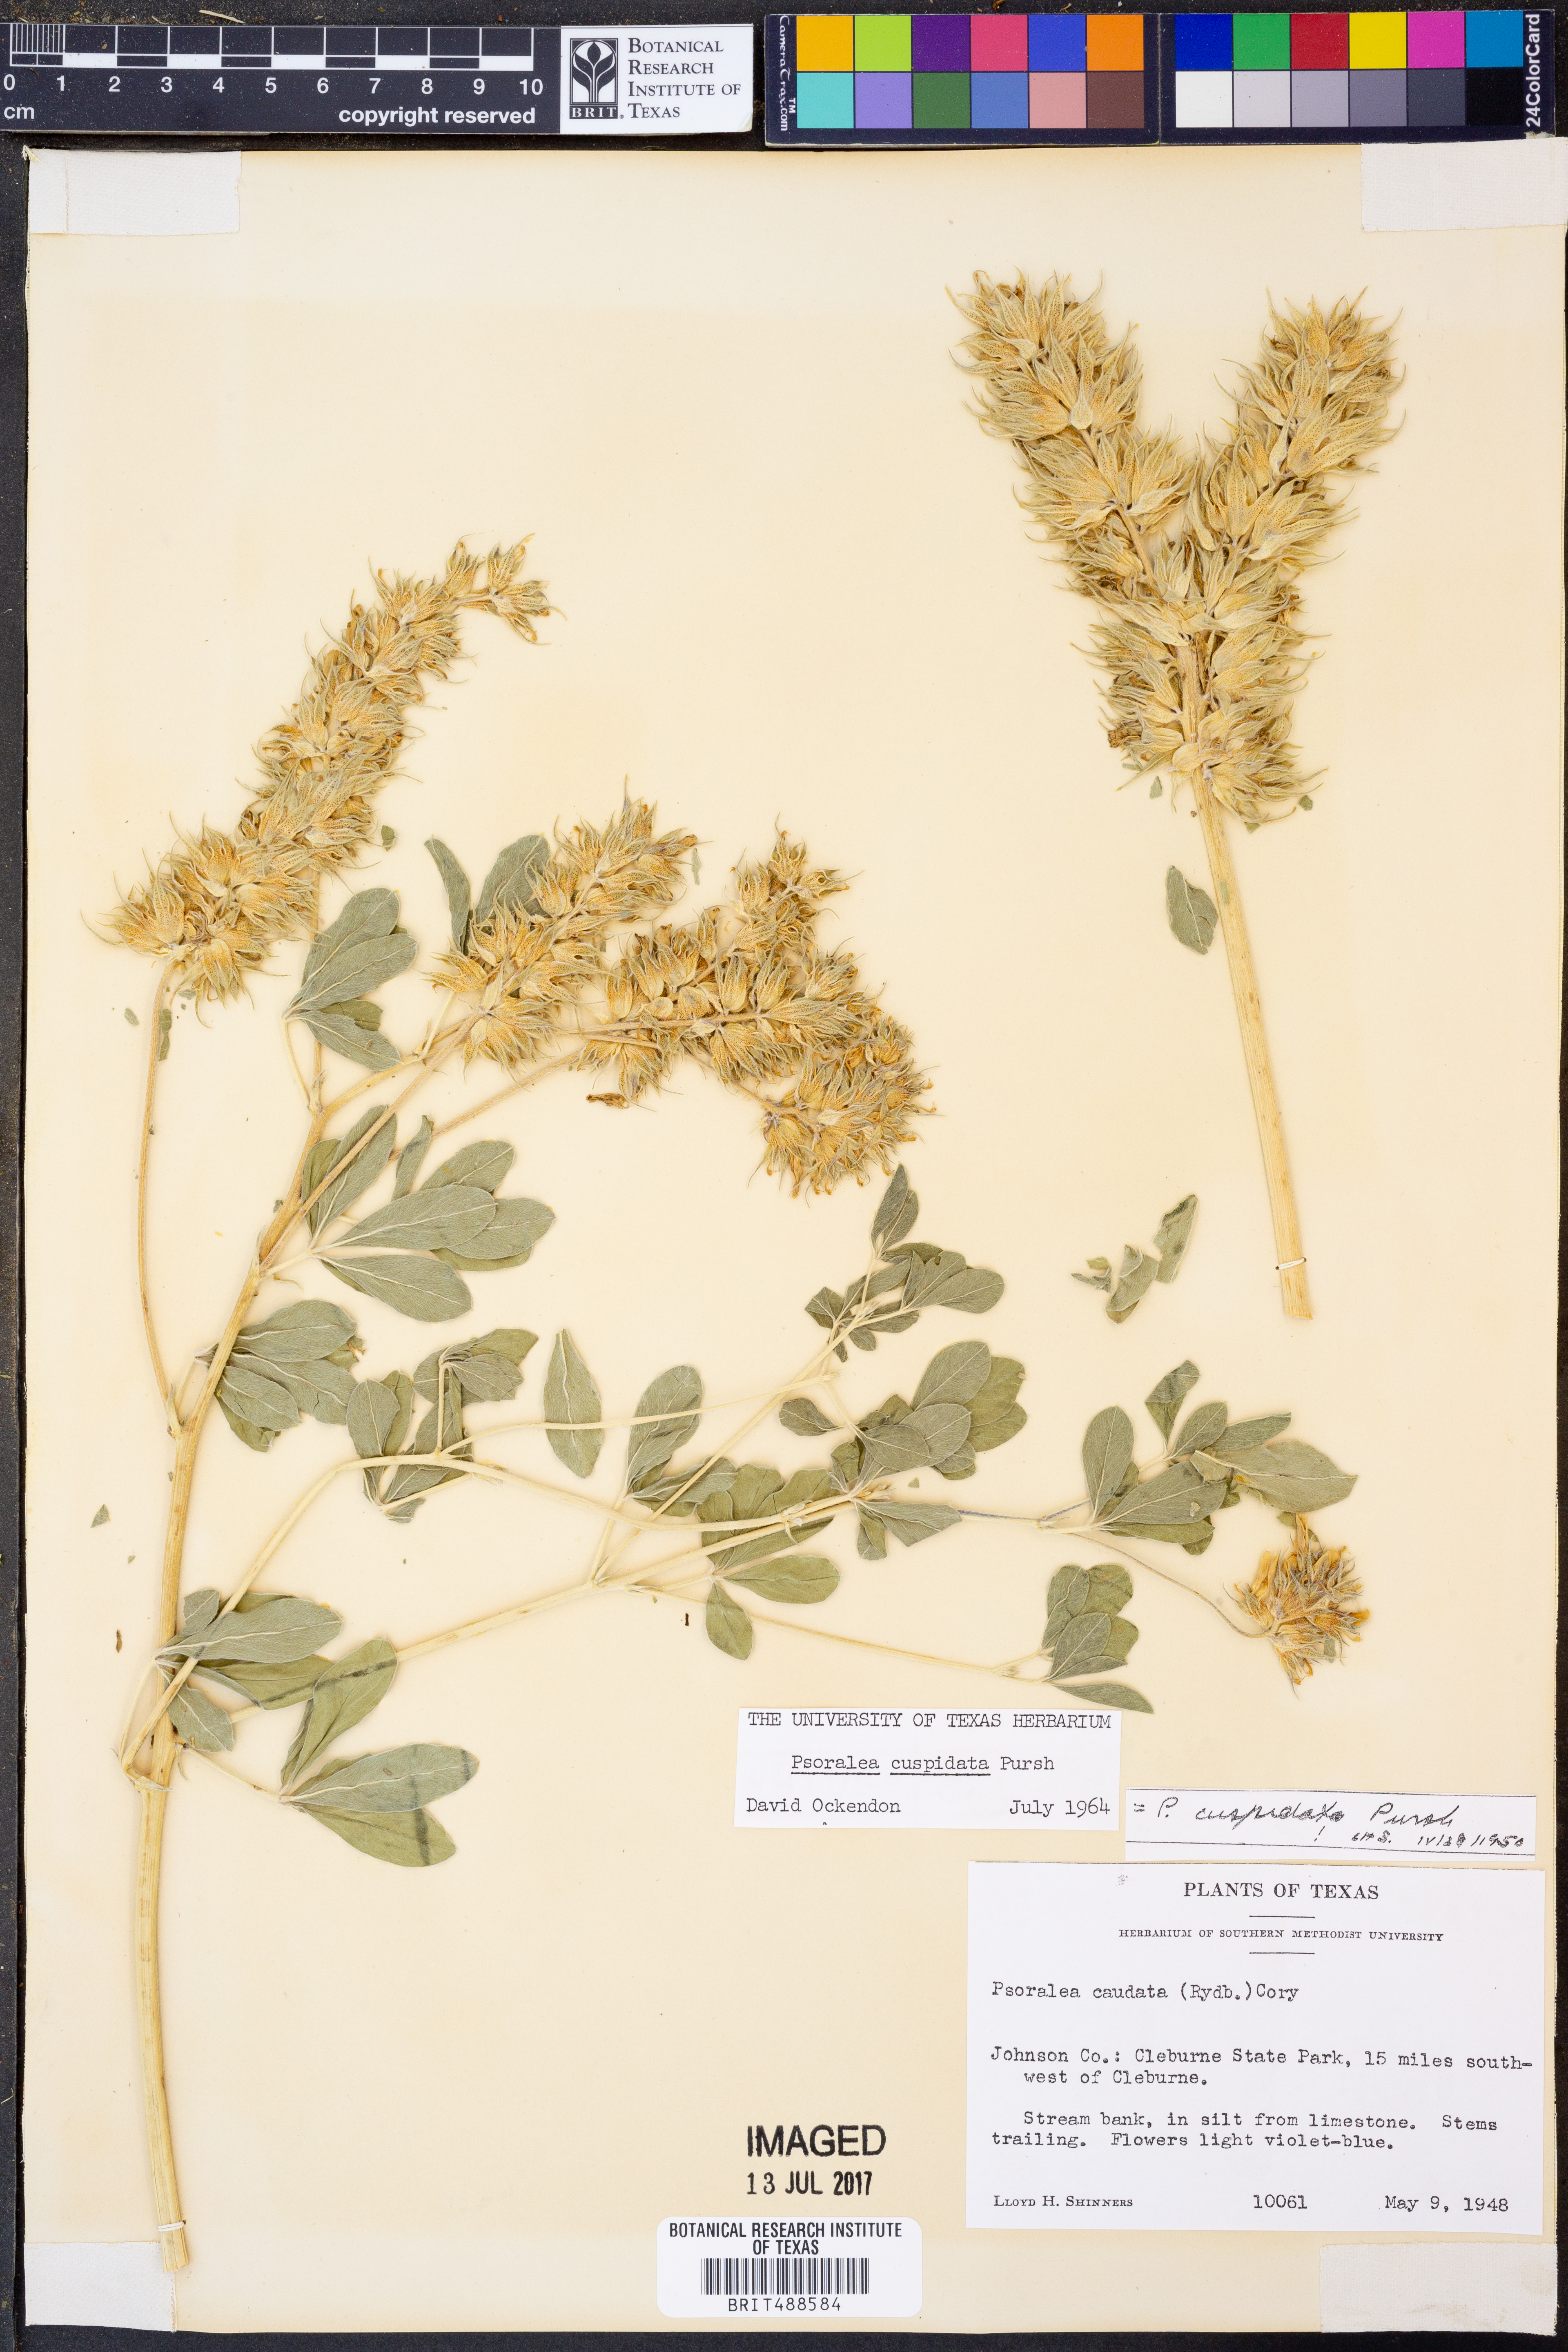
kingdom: Plantae
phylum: Tracheophyta
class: Magnoliopsida
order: Fabales
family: Fabaceae
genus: Pediomelum
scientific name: Pediomelum cuspidatum
